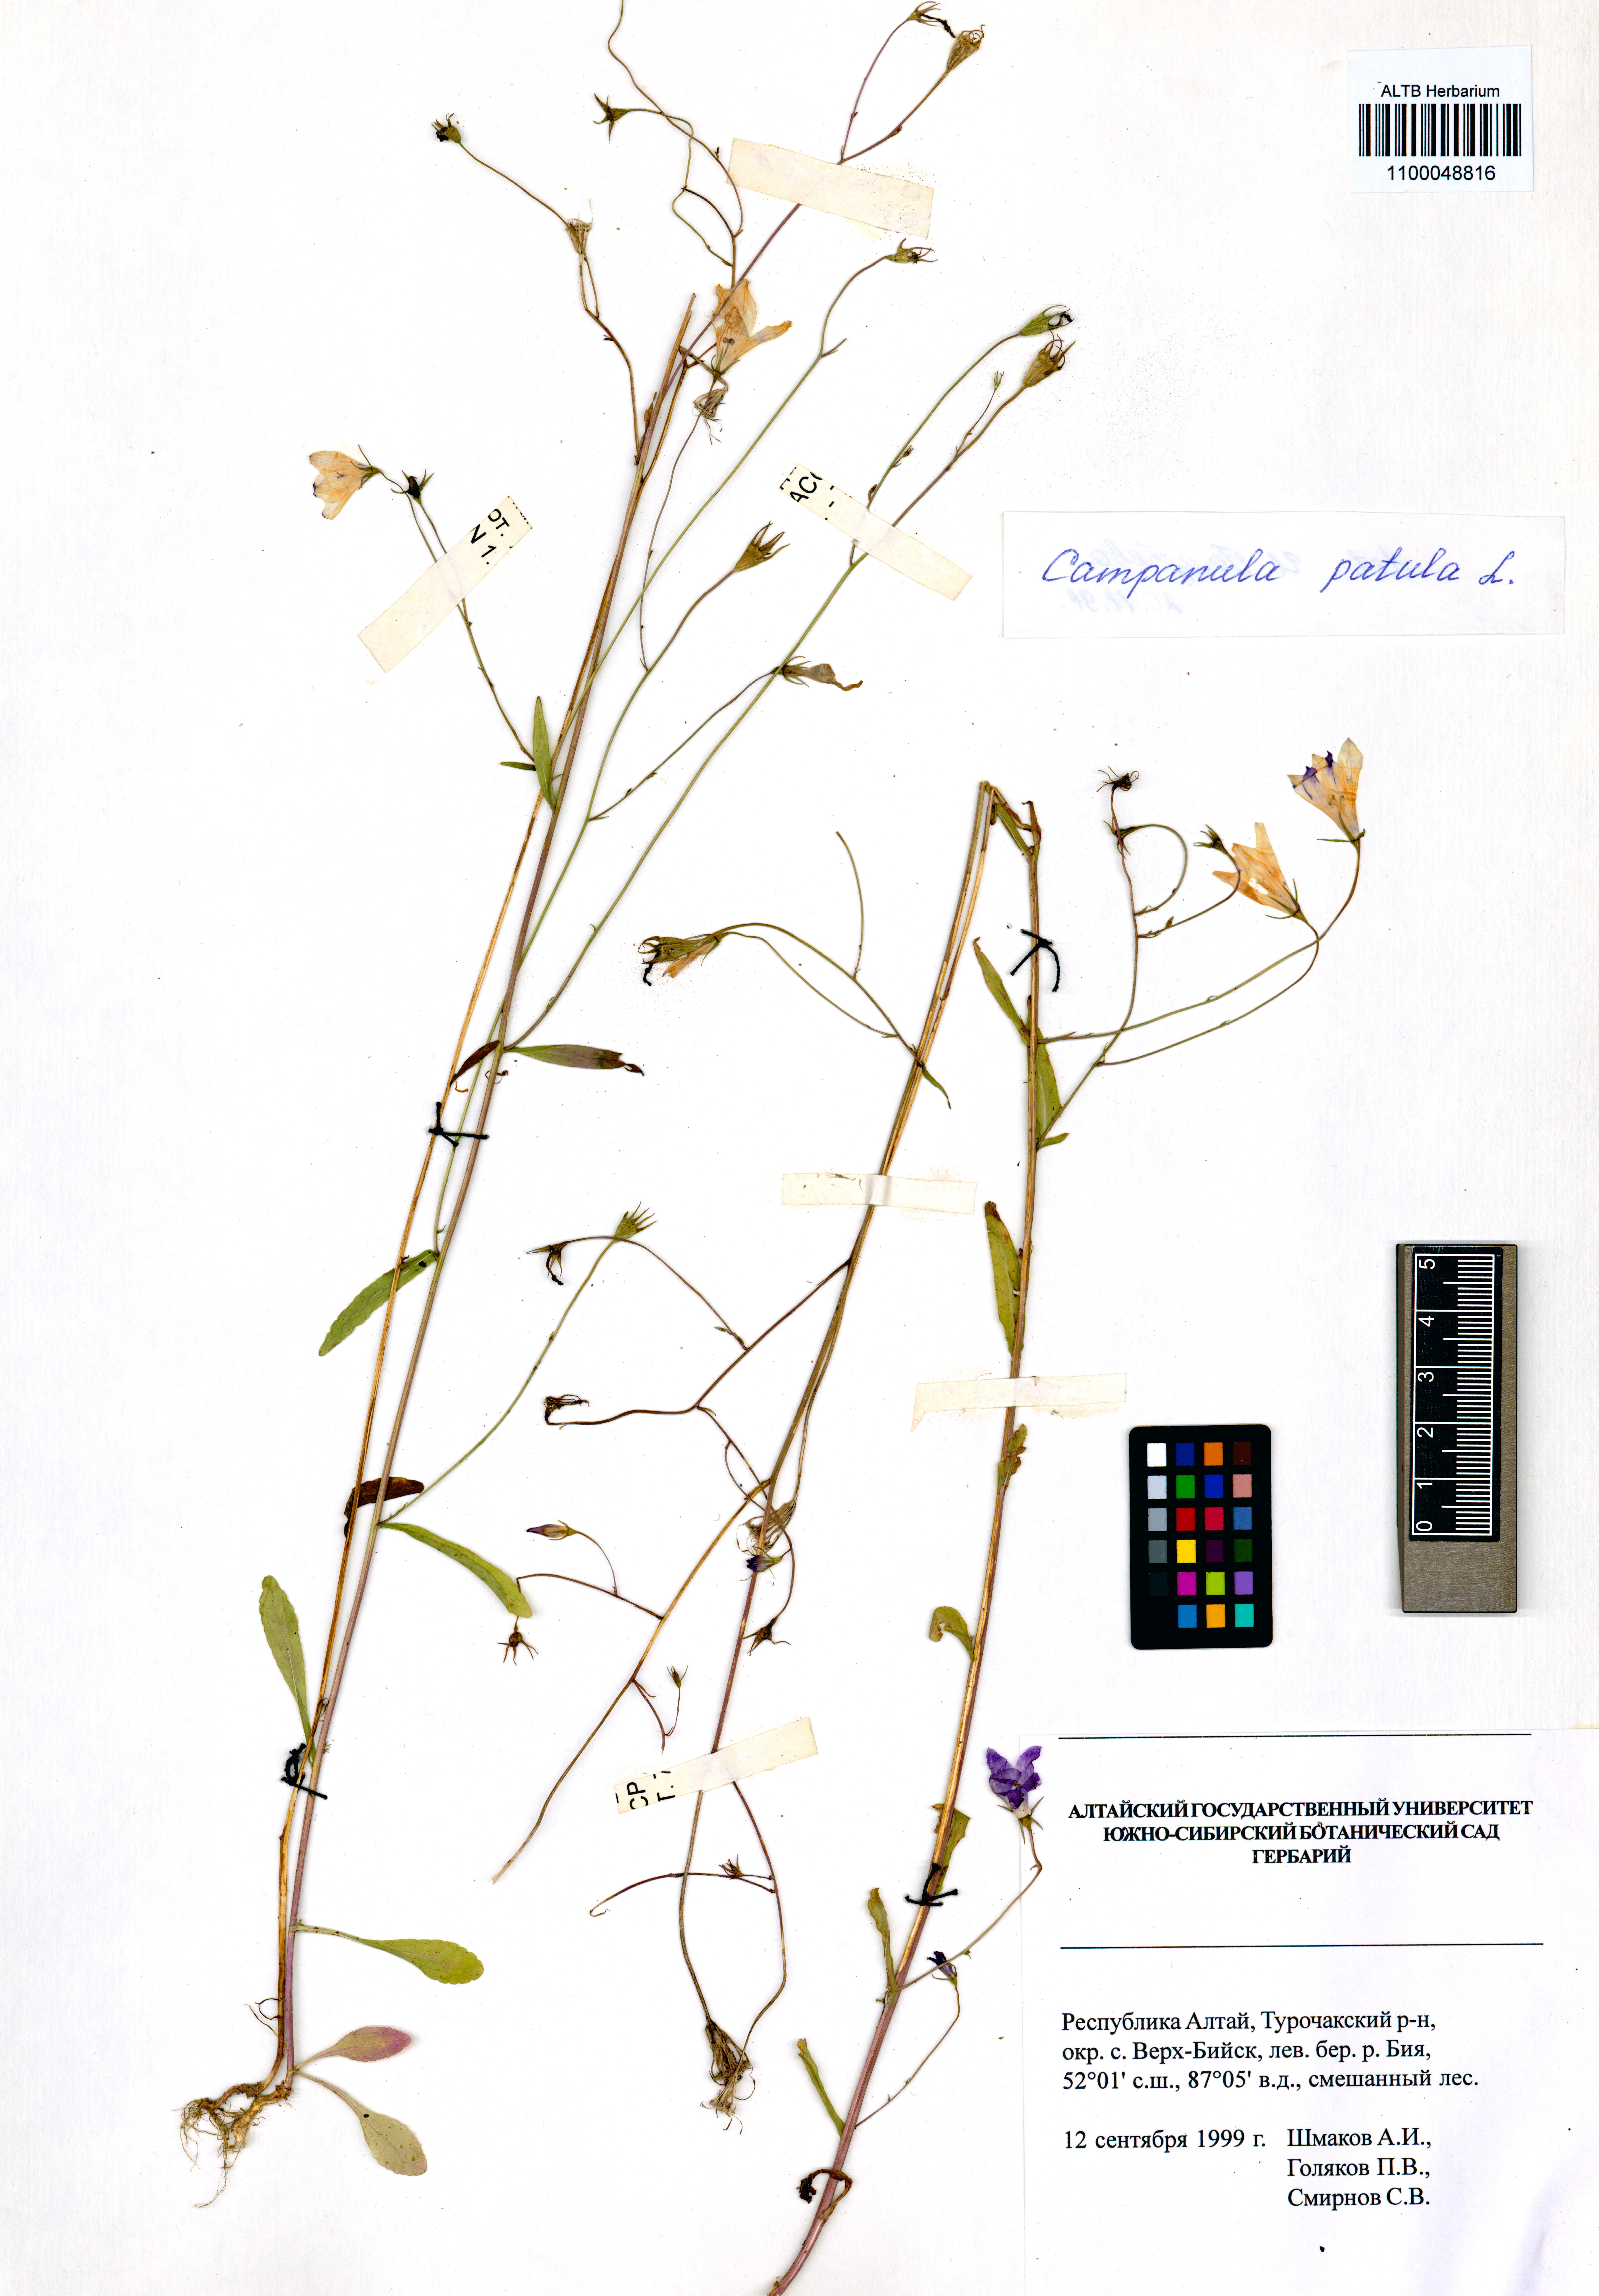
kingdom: Plantae
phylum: Tracheophyta
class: Magnoliopsida
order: Asterales
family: Campanulaceae
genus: Campanula
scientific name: Campanula patula
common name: Spreading bellflower
